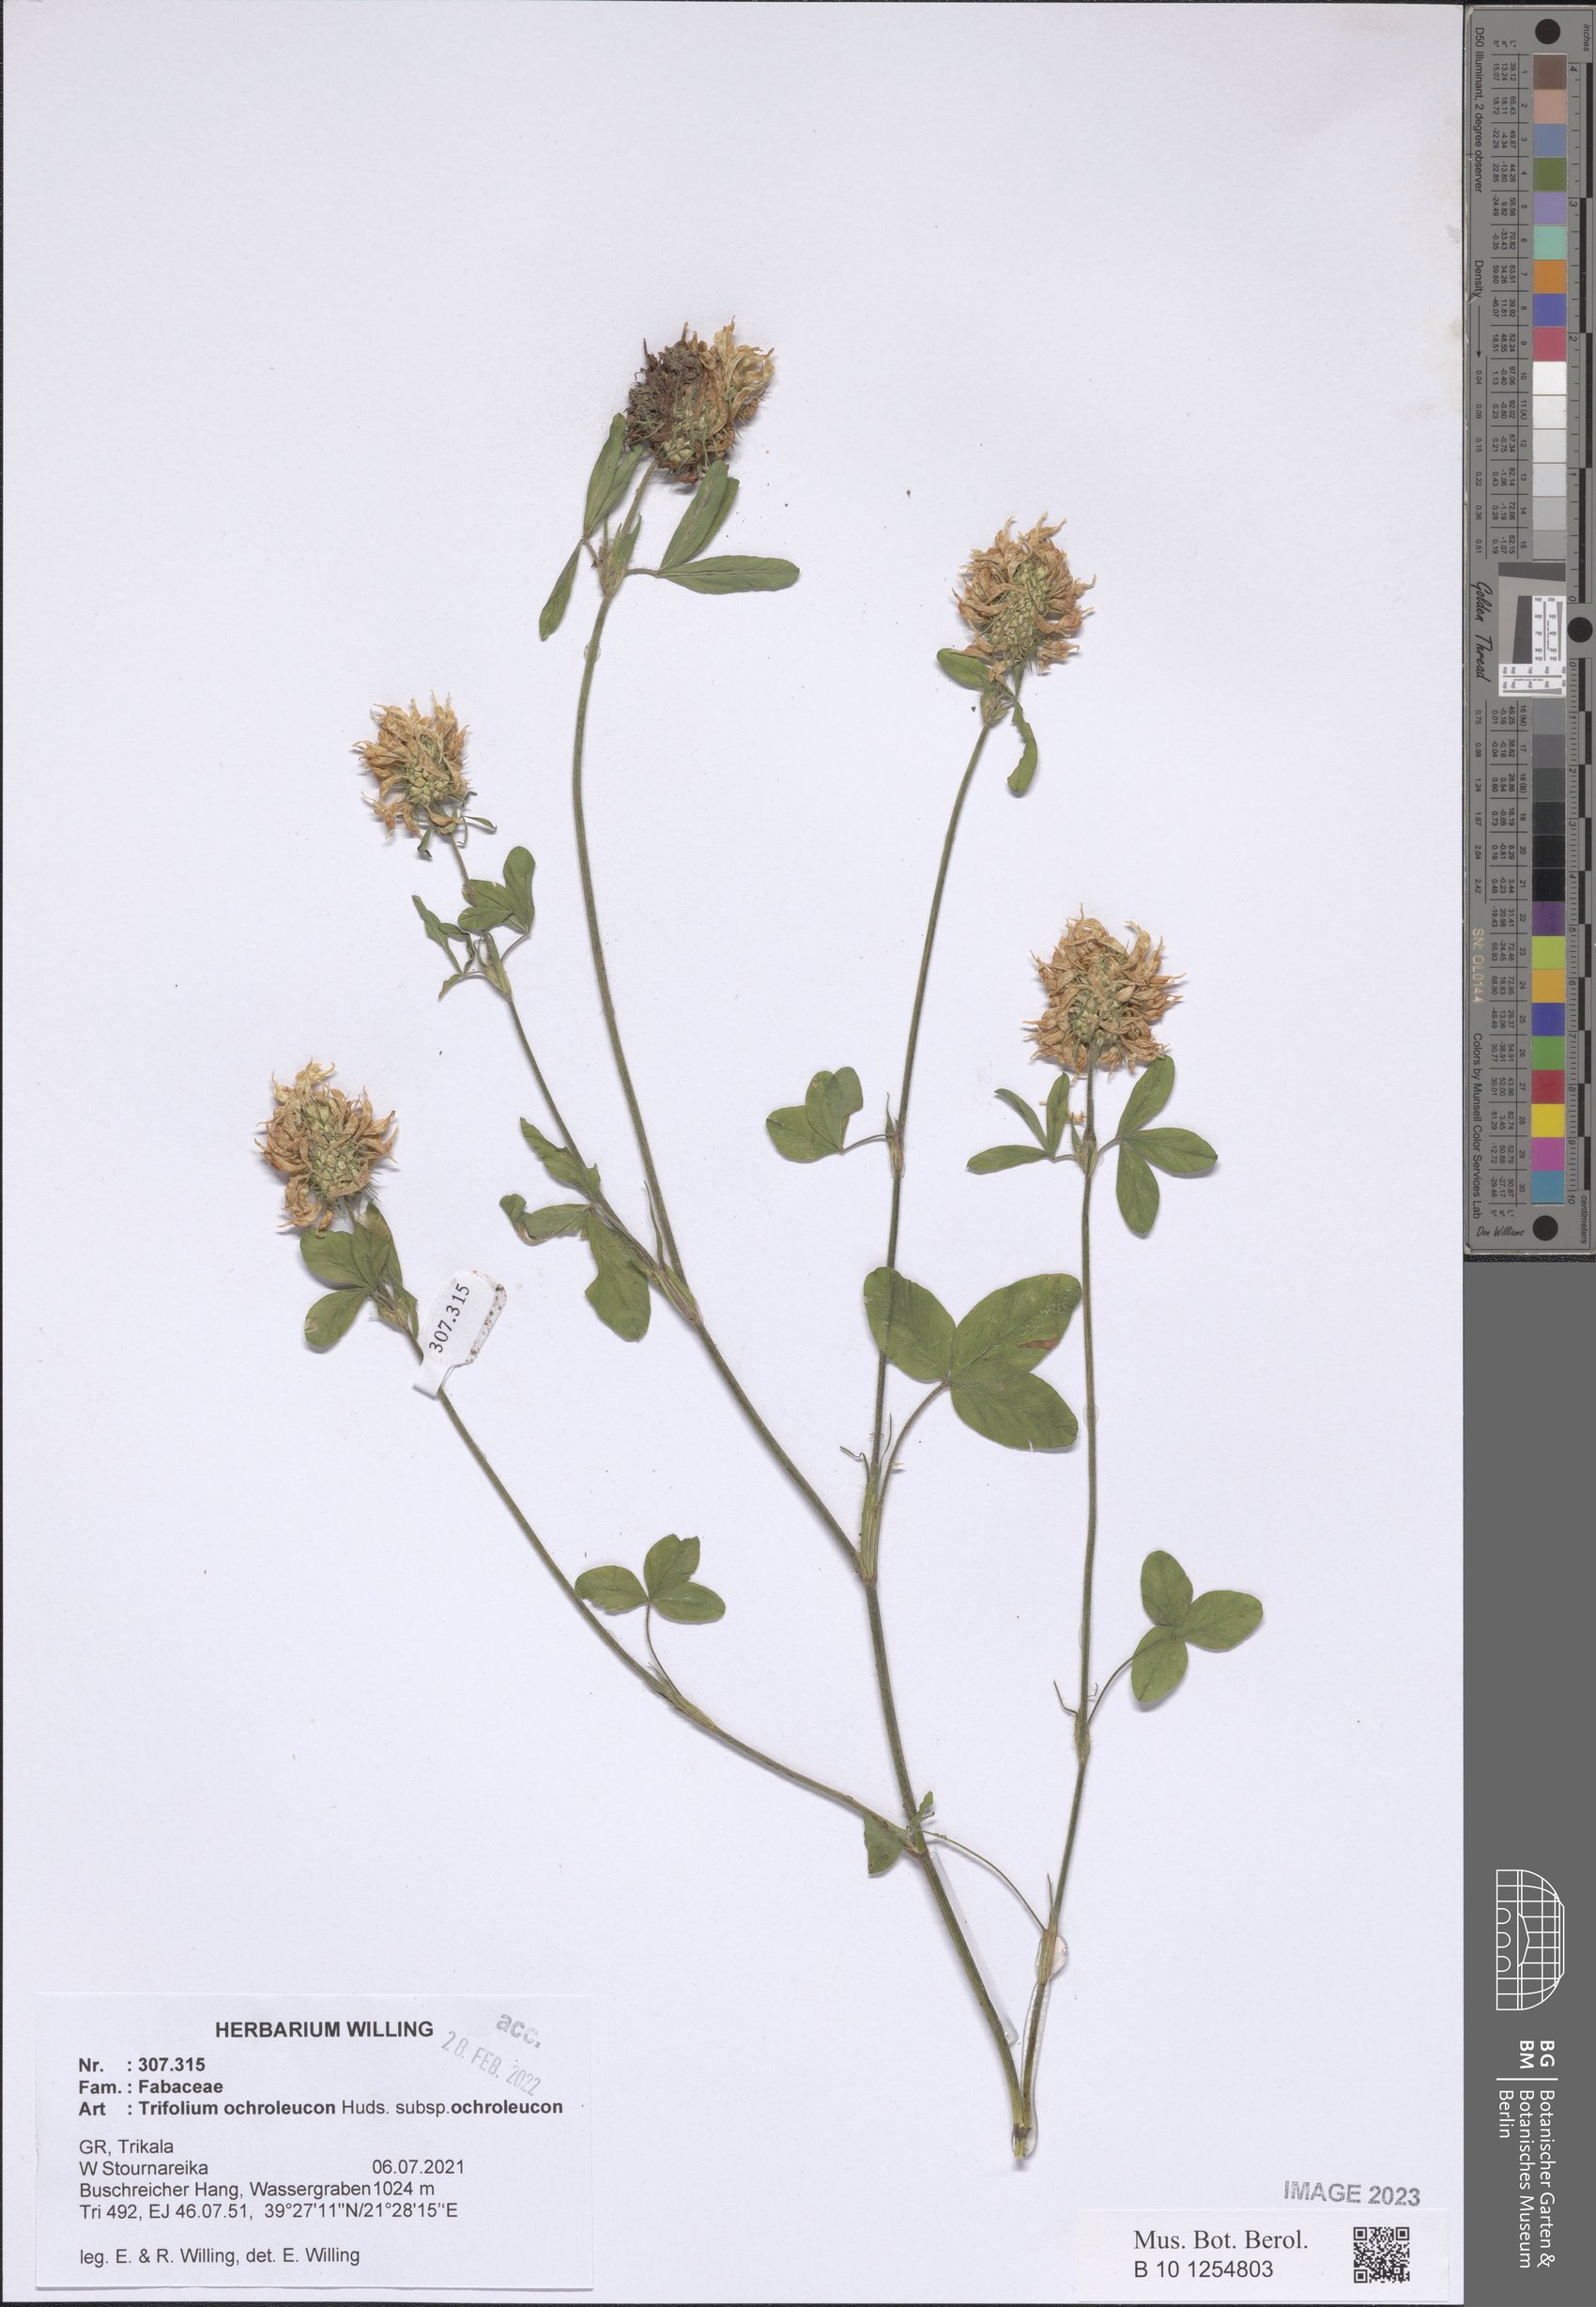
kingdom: Plantae
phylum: Tracheophyta
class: Magnoliopsida
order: Fabales
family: Fabaceae
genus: Trifolium
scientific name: Trifolium ochroleucon
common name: Sulphur clover
